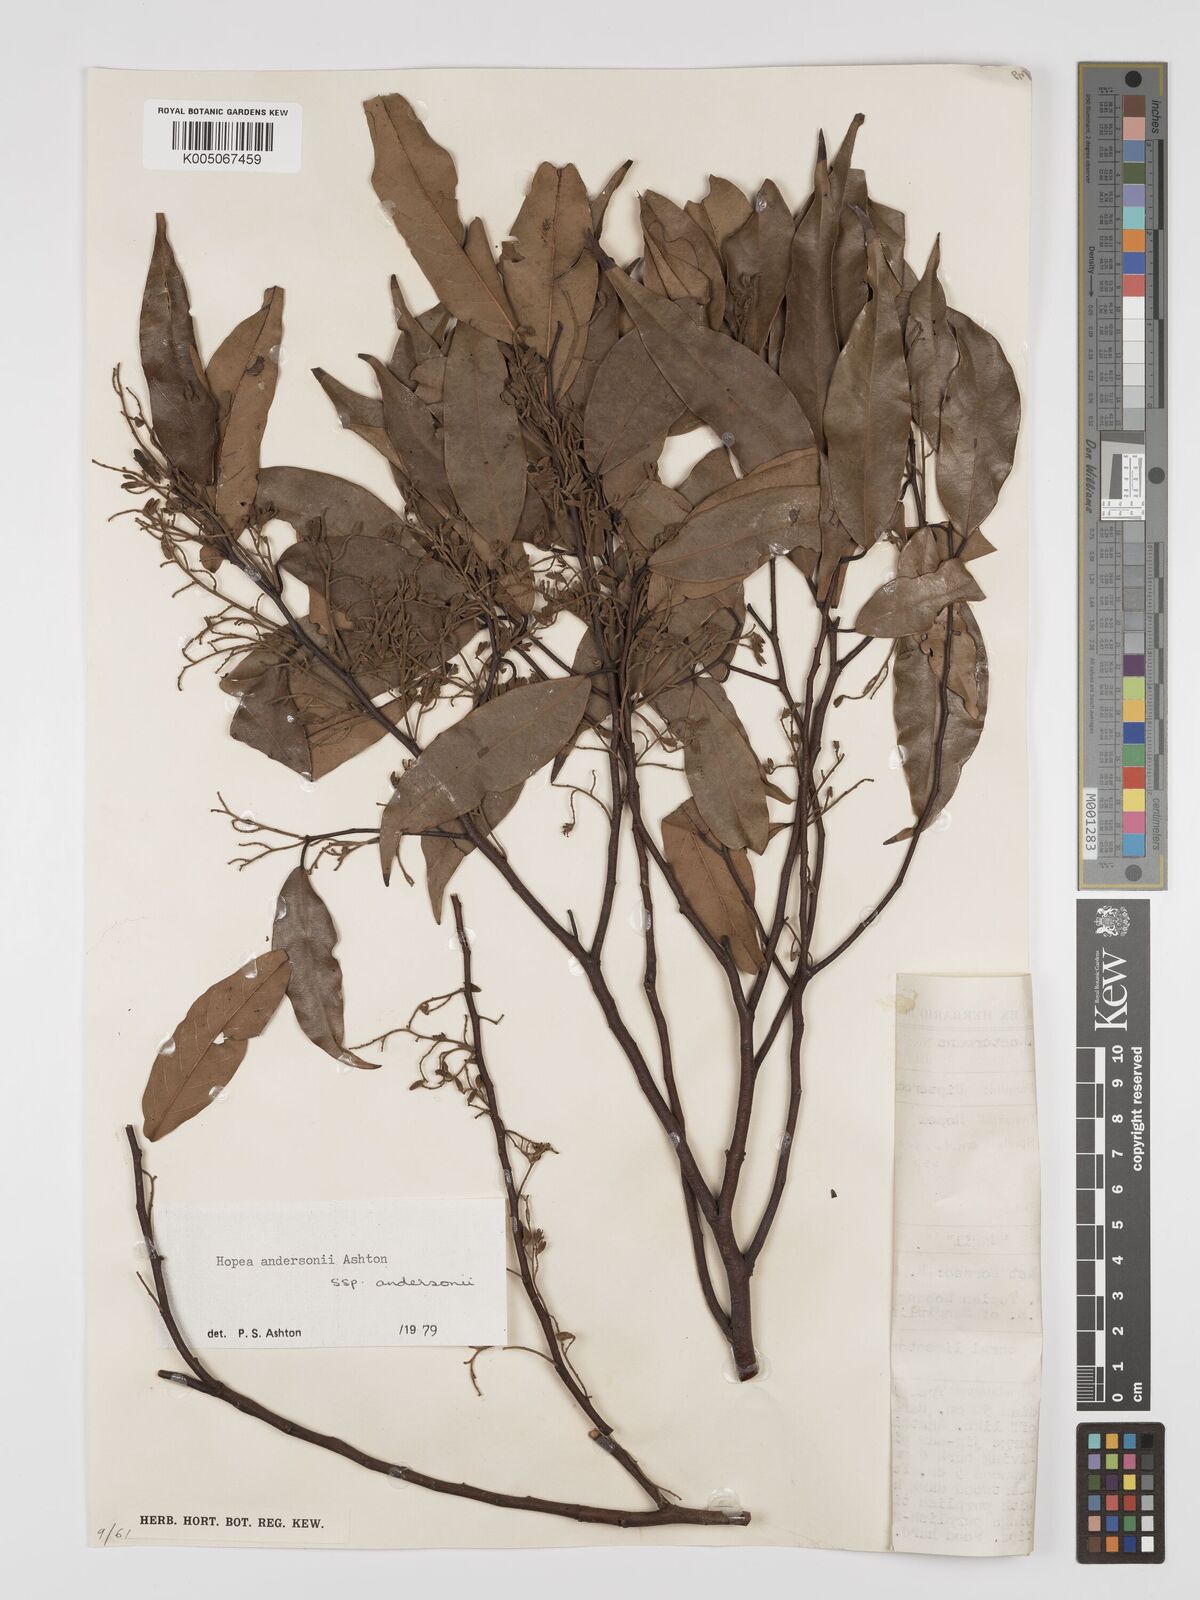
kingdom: Plantae
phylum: Tracheophyta
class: Magnoliopsida
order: Malvales
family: Dipterocarpaceae
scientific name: Dipterocarpaceae
